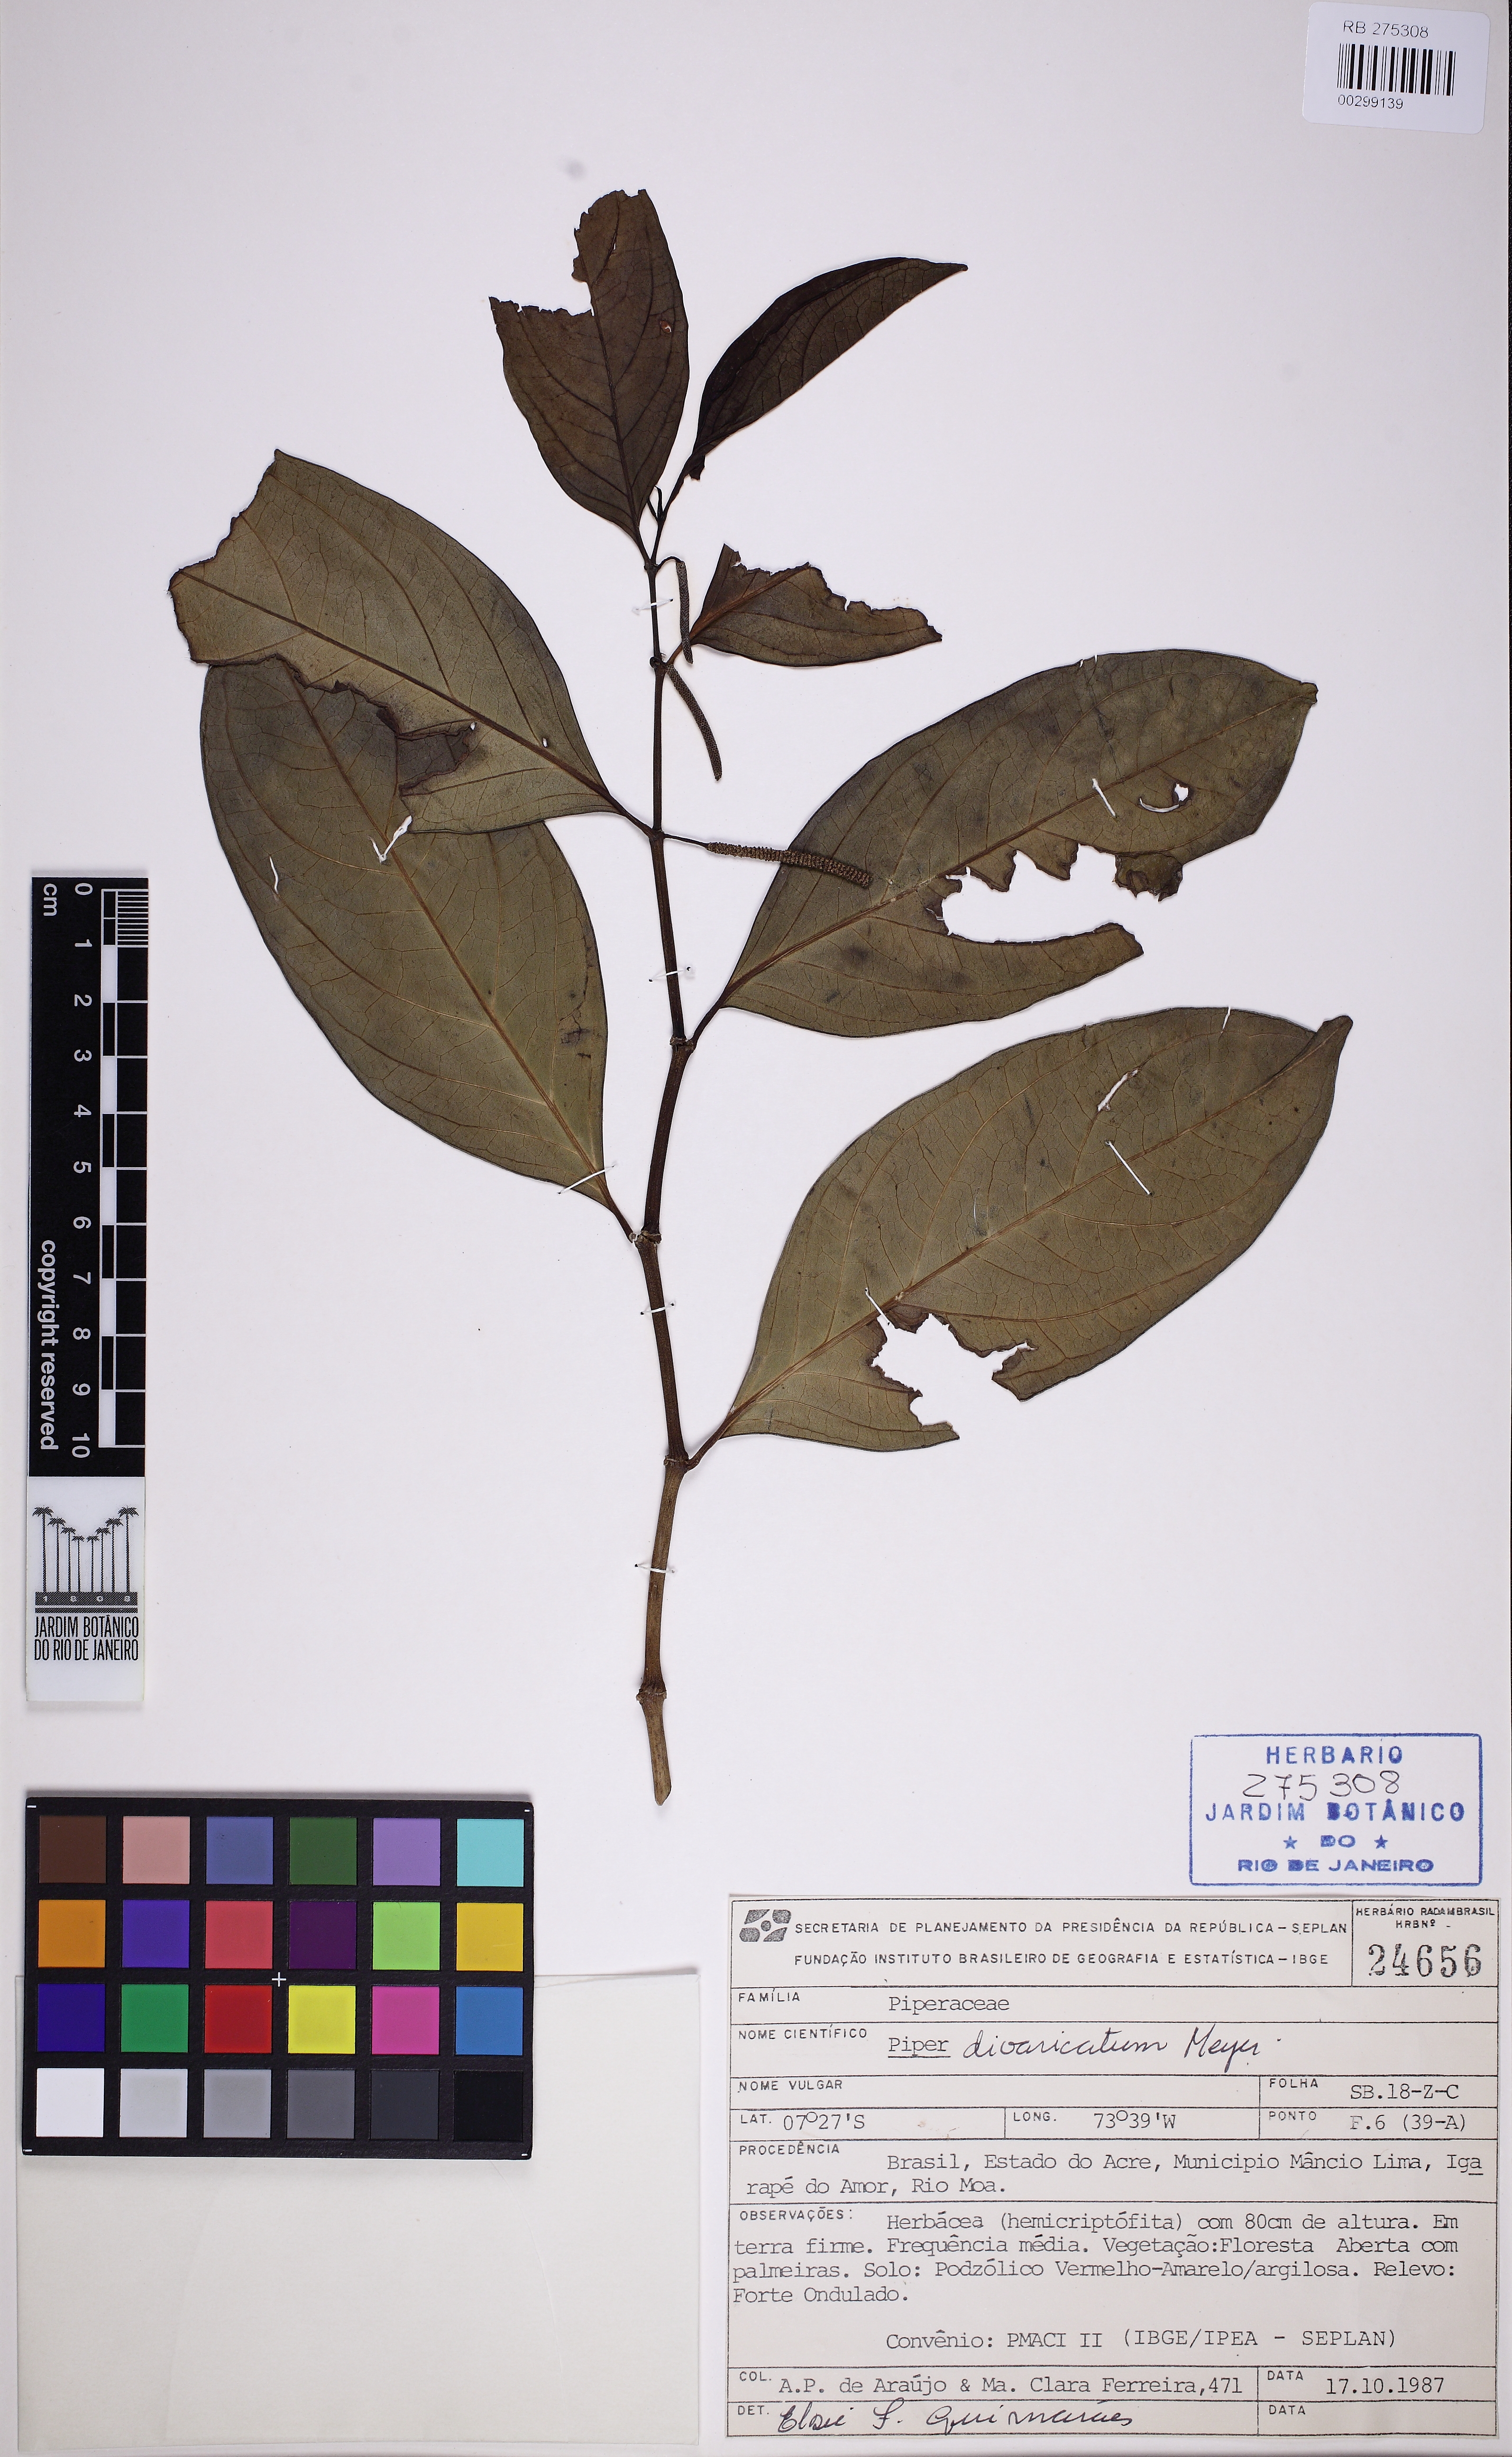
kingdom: Plantae
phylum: Tracheophyta
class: Magnoliopsida
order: Piperales
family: Piperaceae
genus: Piper
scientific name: Piper divaricatum
